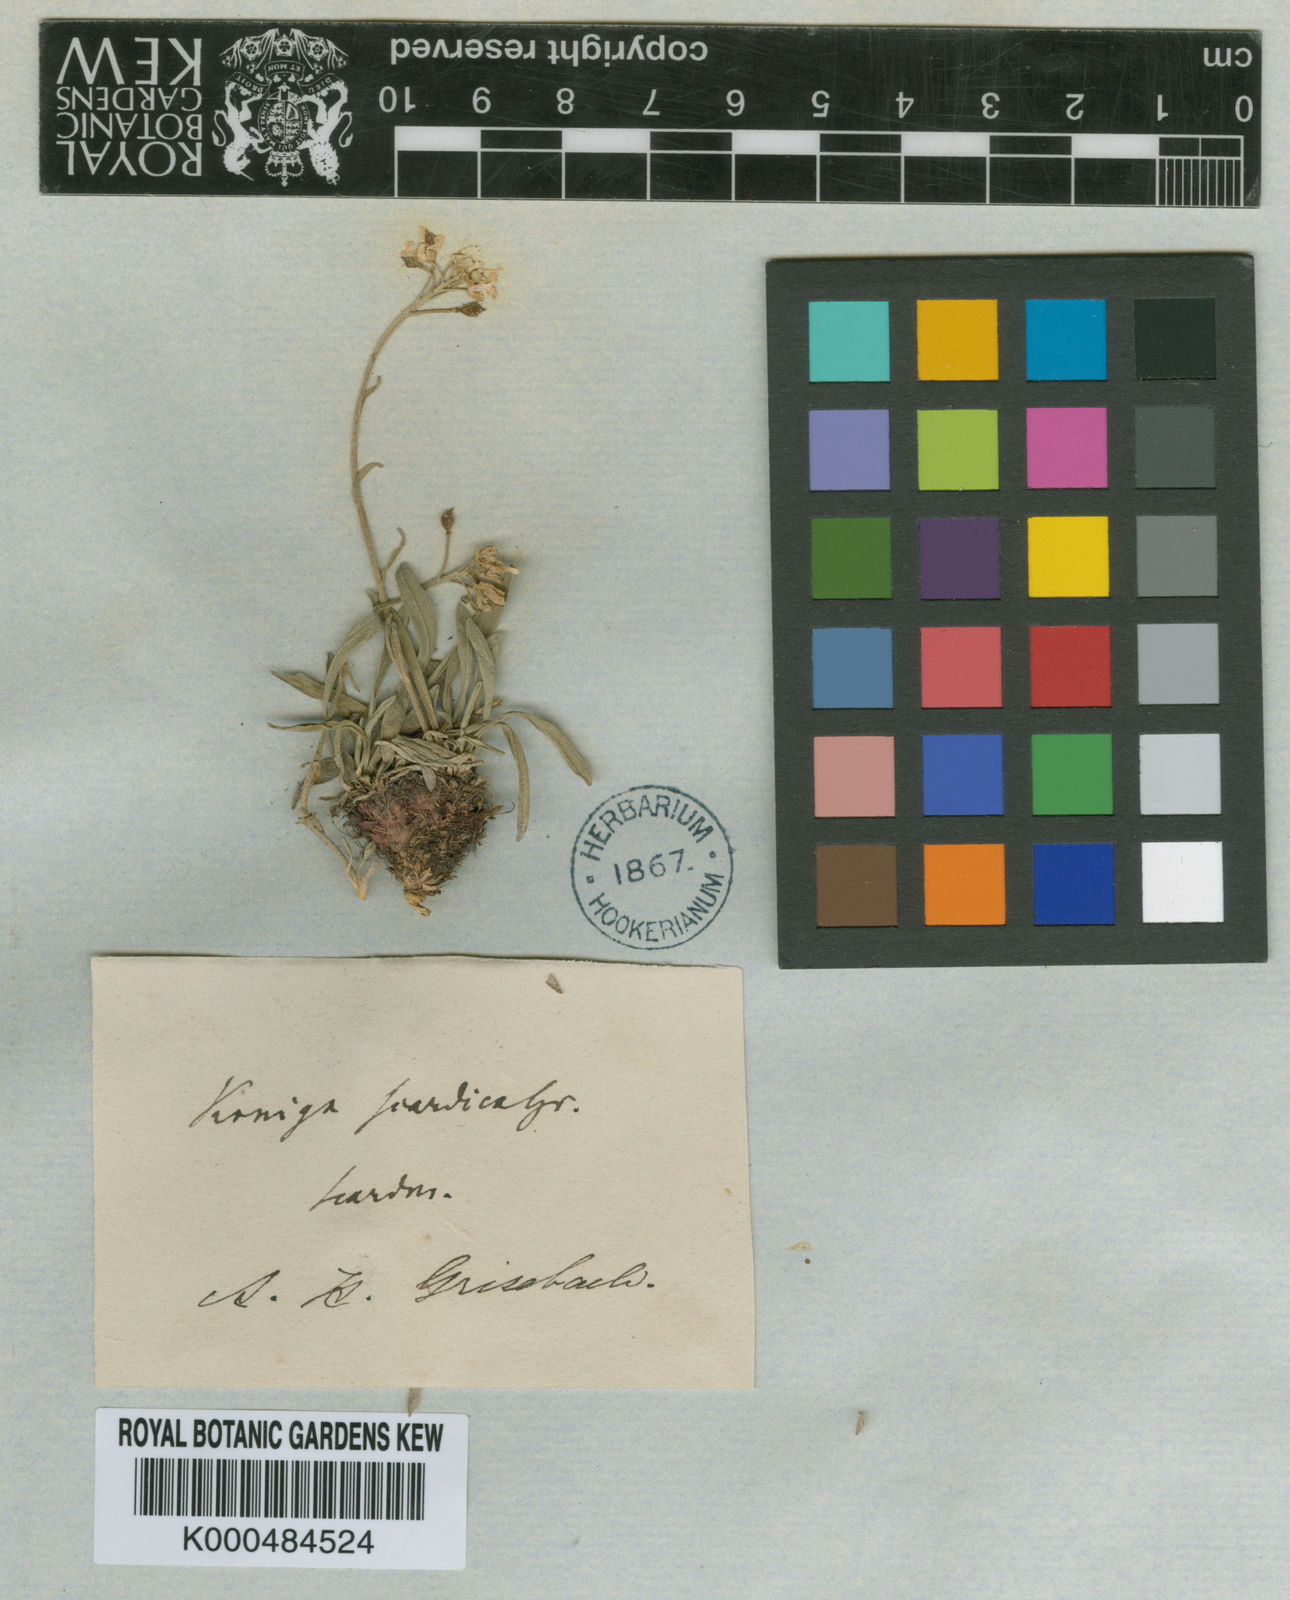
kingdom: Plantae
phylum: Tracheophyta
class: Magnoliopsida
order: Brassicales
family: Brassicaceae
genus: Phyllolepidium
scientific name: Phyllolepidium rupestre
